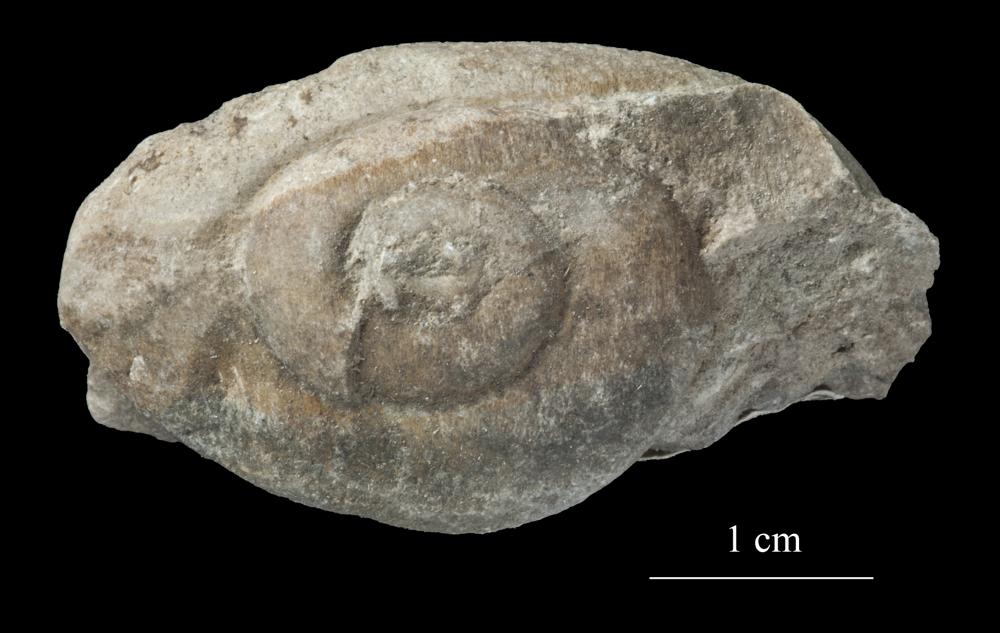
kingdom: Animalia
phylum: Mollusca
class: Gastropoda
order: Neogastropoda
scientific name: Neogastropoda
